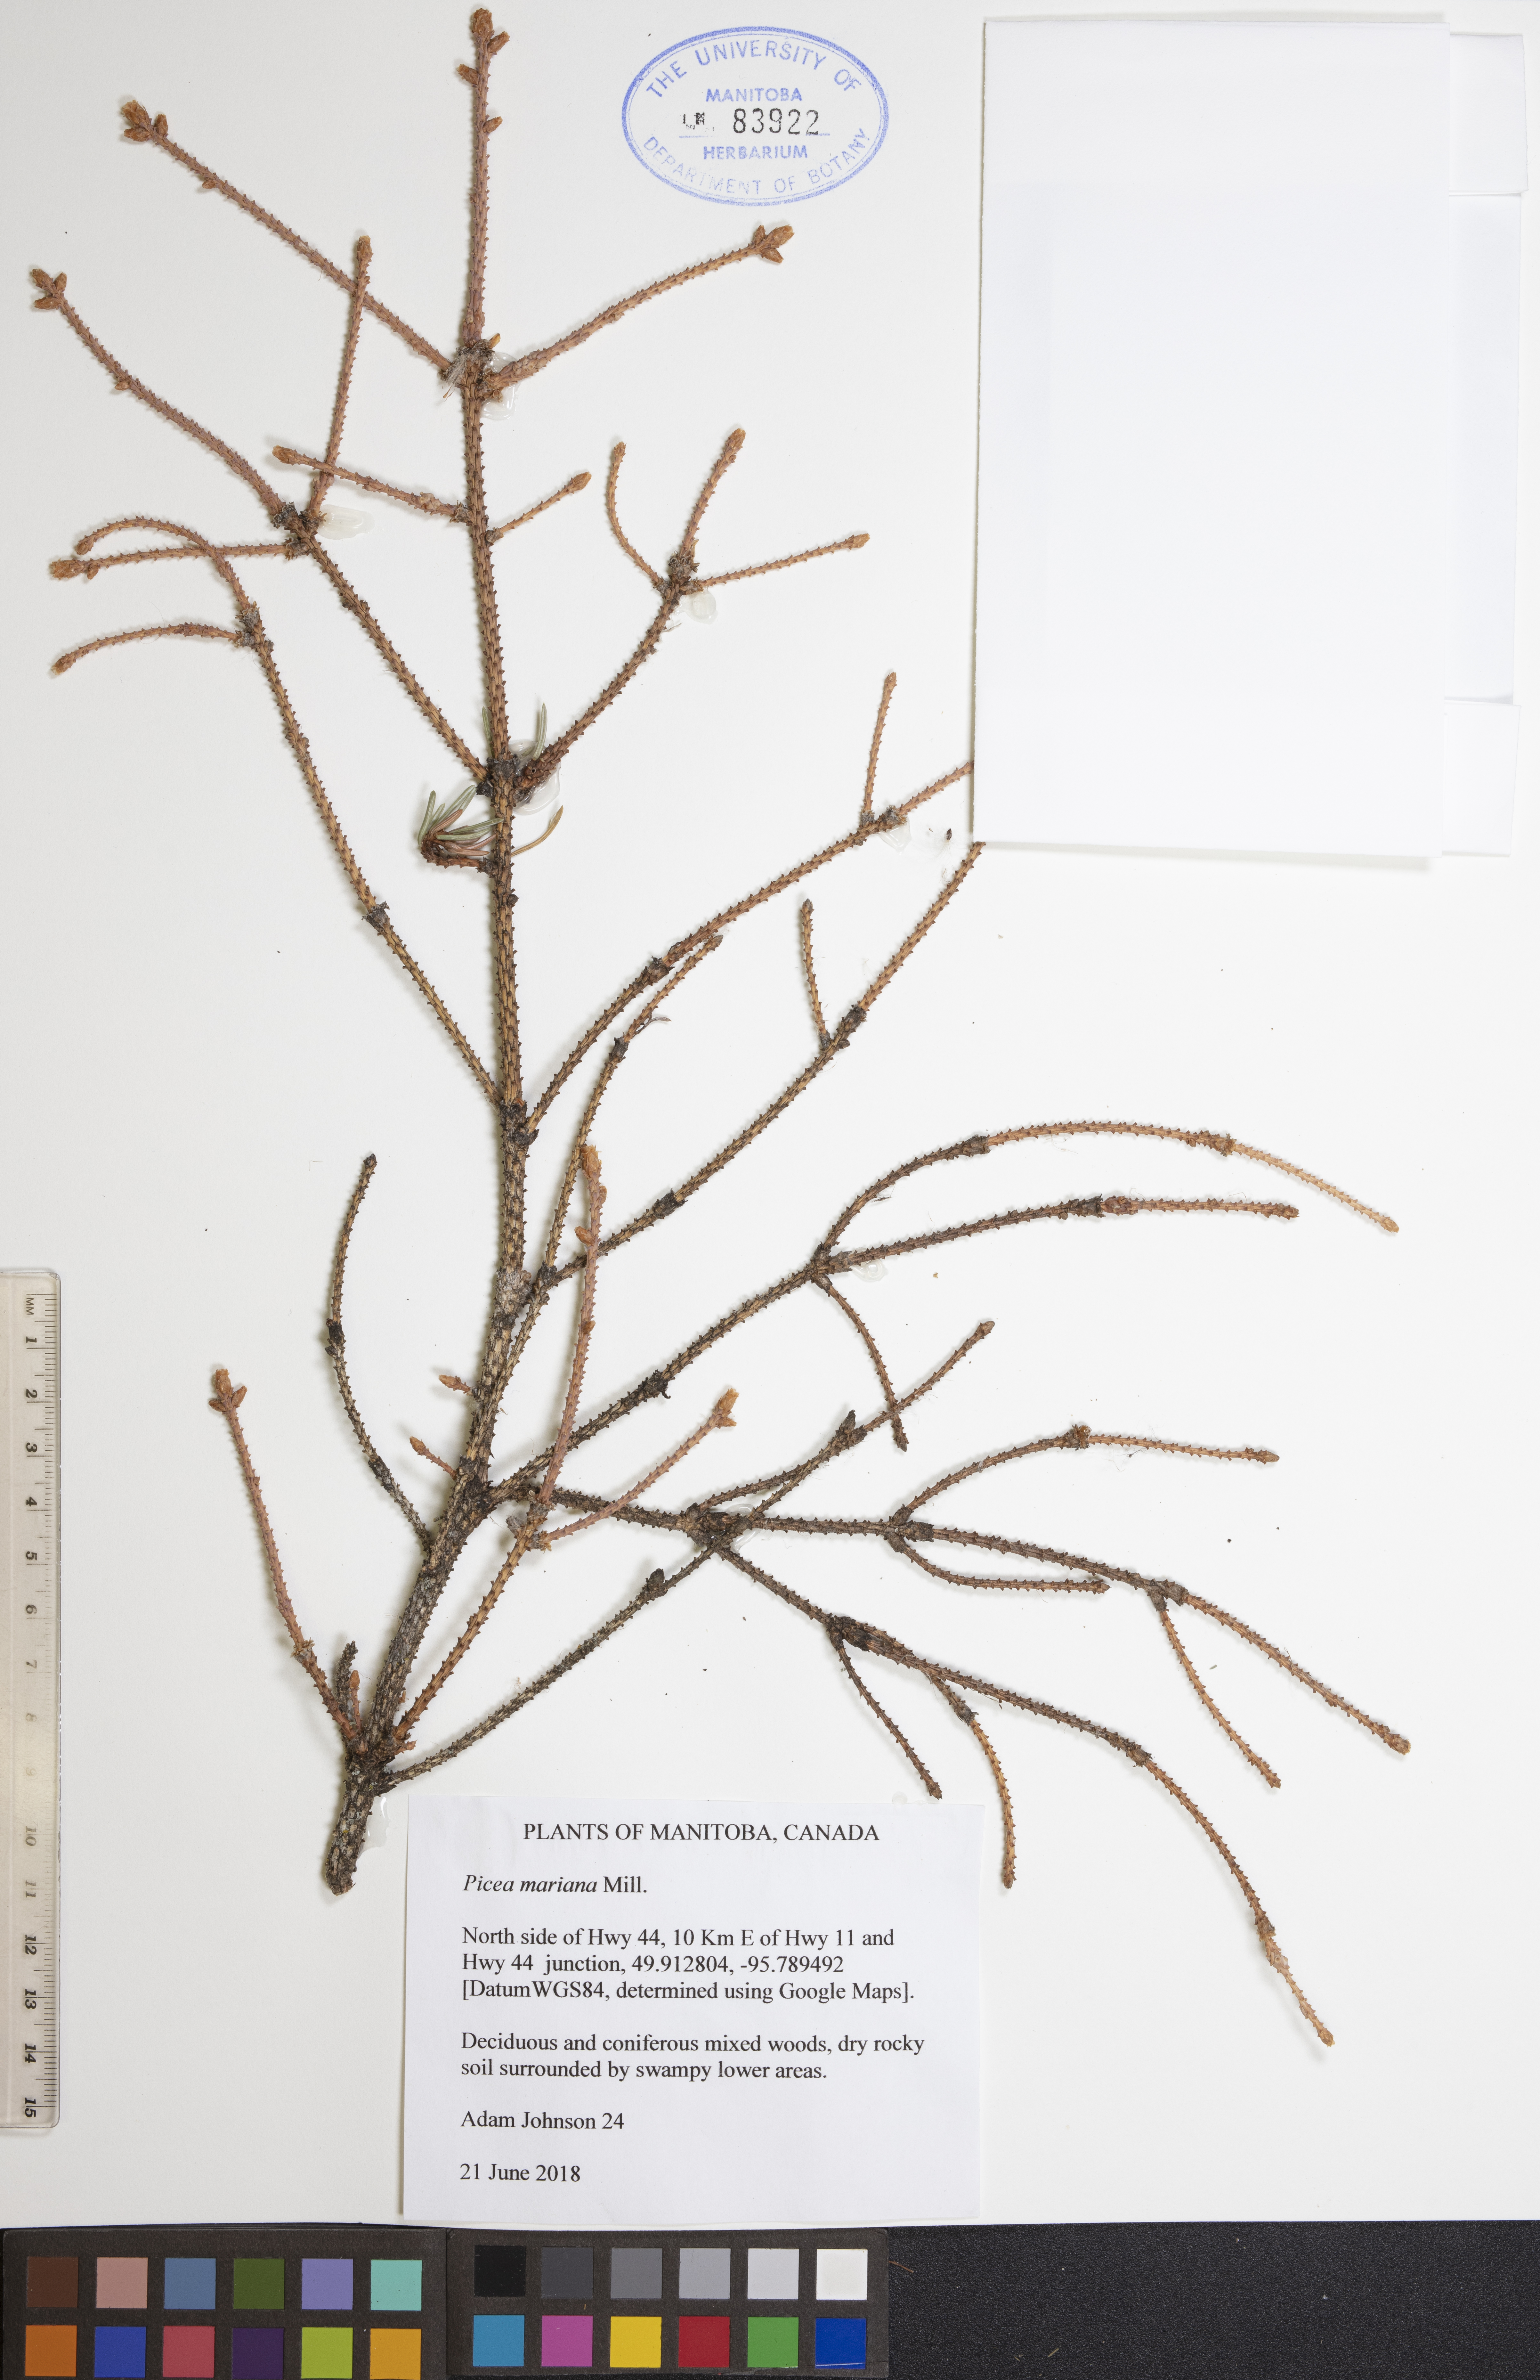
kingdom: Plantae
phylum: Tracheophyta
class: Pinopsida
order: Pinales
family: Pinaceae
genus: Picea
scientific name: Picea mariana
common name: Black spruce
